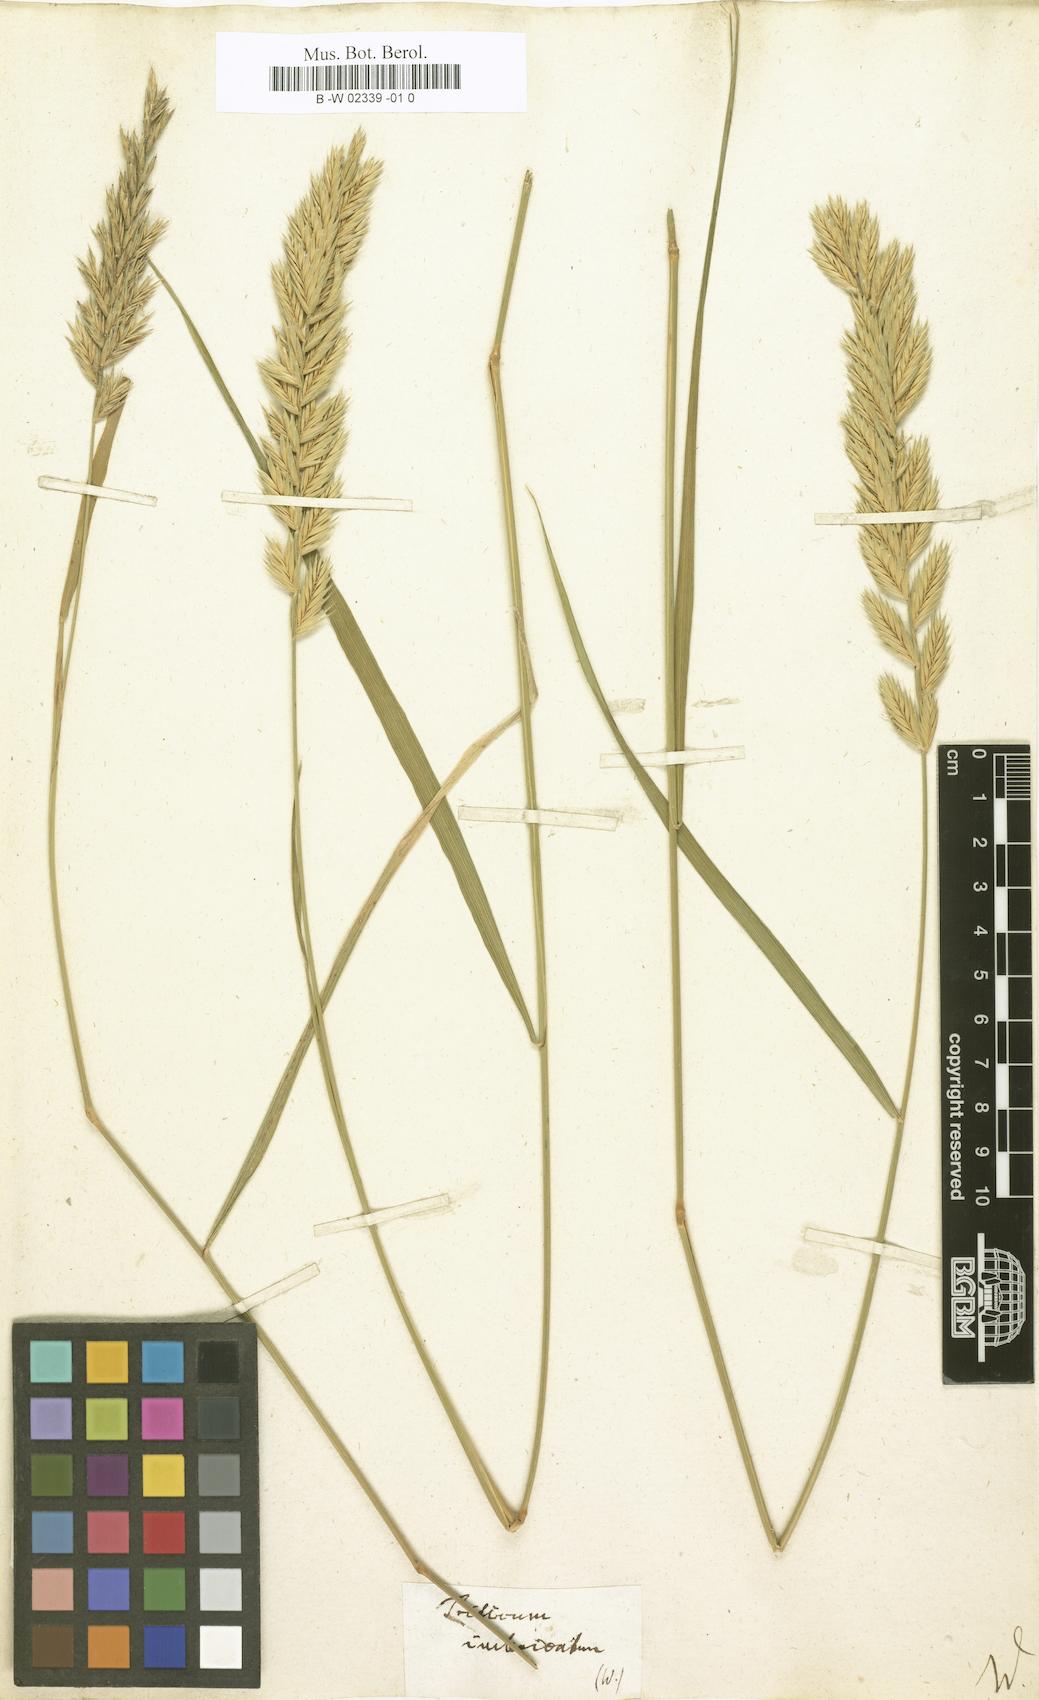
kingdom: Plantae
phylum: Tracheophyta
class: Liliopsida
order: Poales
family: Poaceae
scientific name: Poaceae
